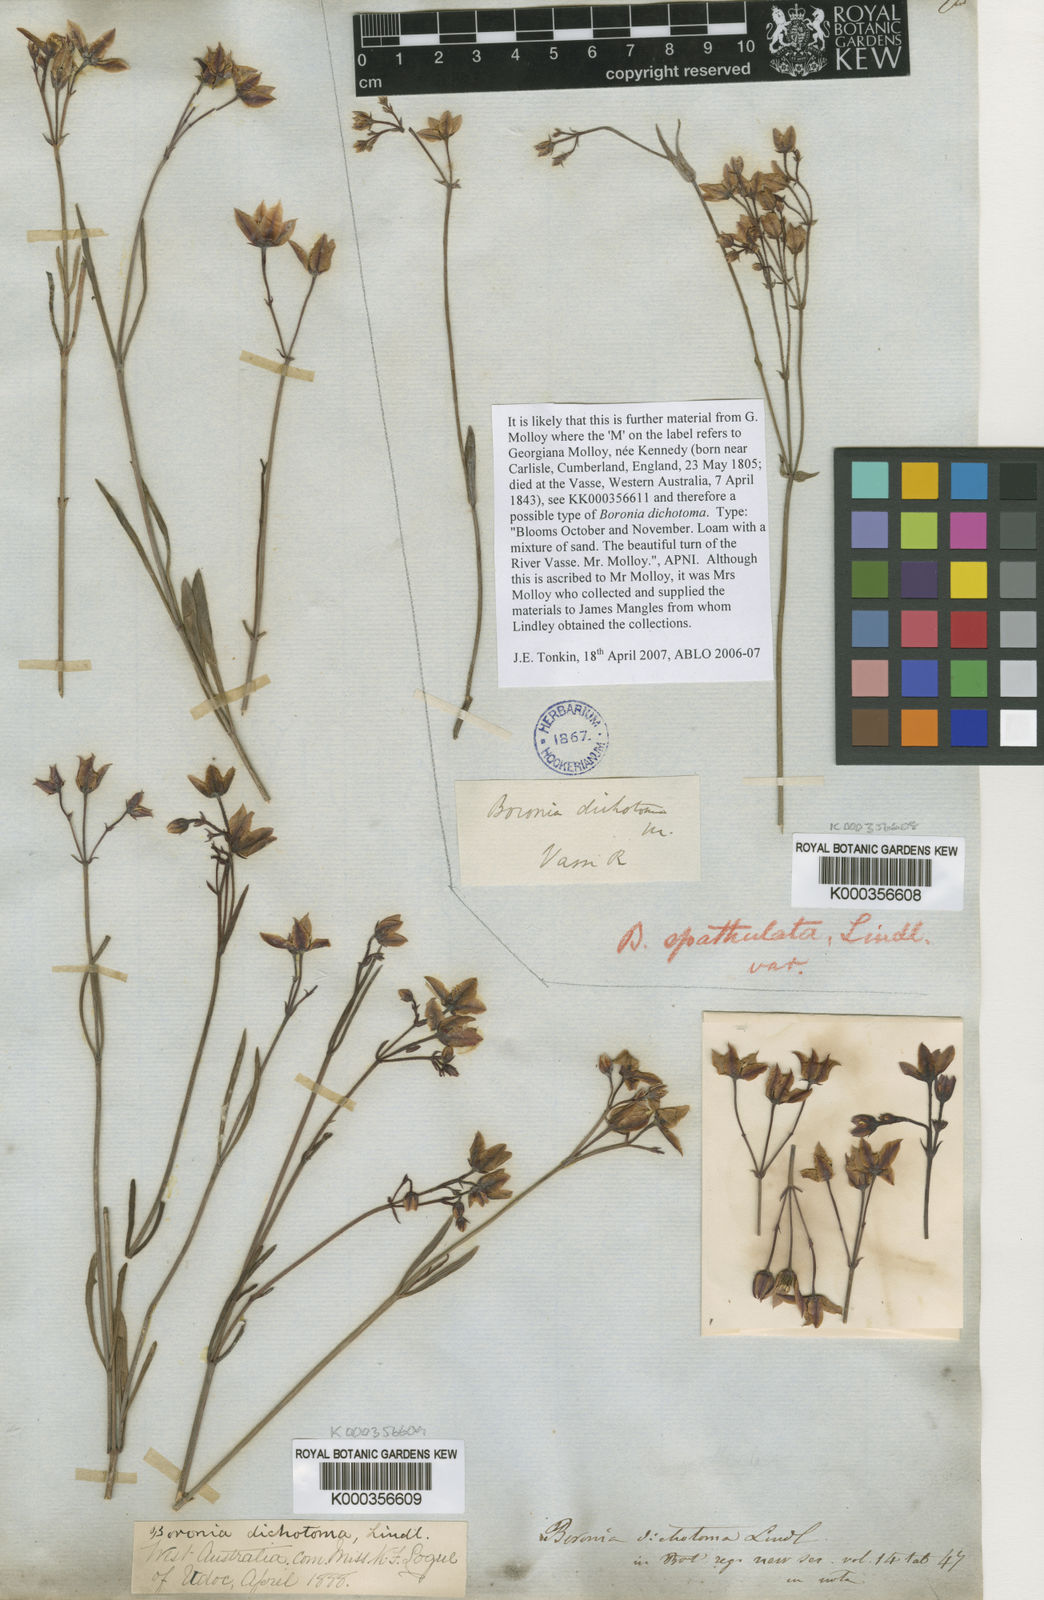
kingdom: Plantae
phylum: Tracheophyta
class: Magnoliopsida
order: Sapindales
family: Rutaceae
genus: Boronia
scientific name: Boronia
